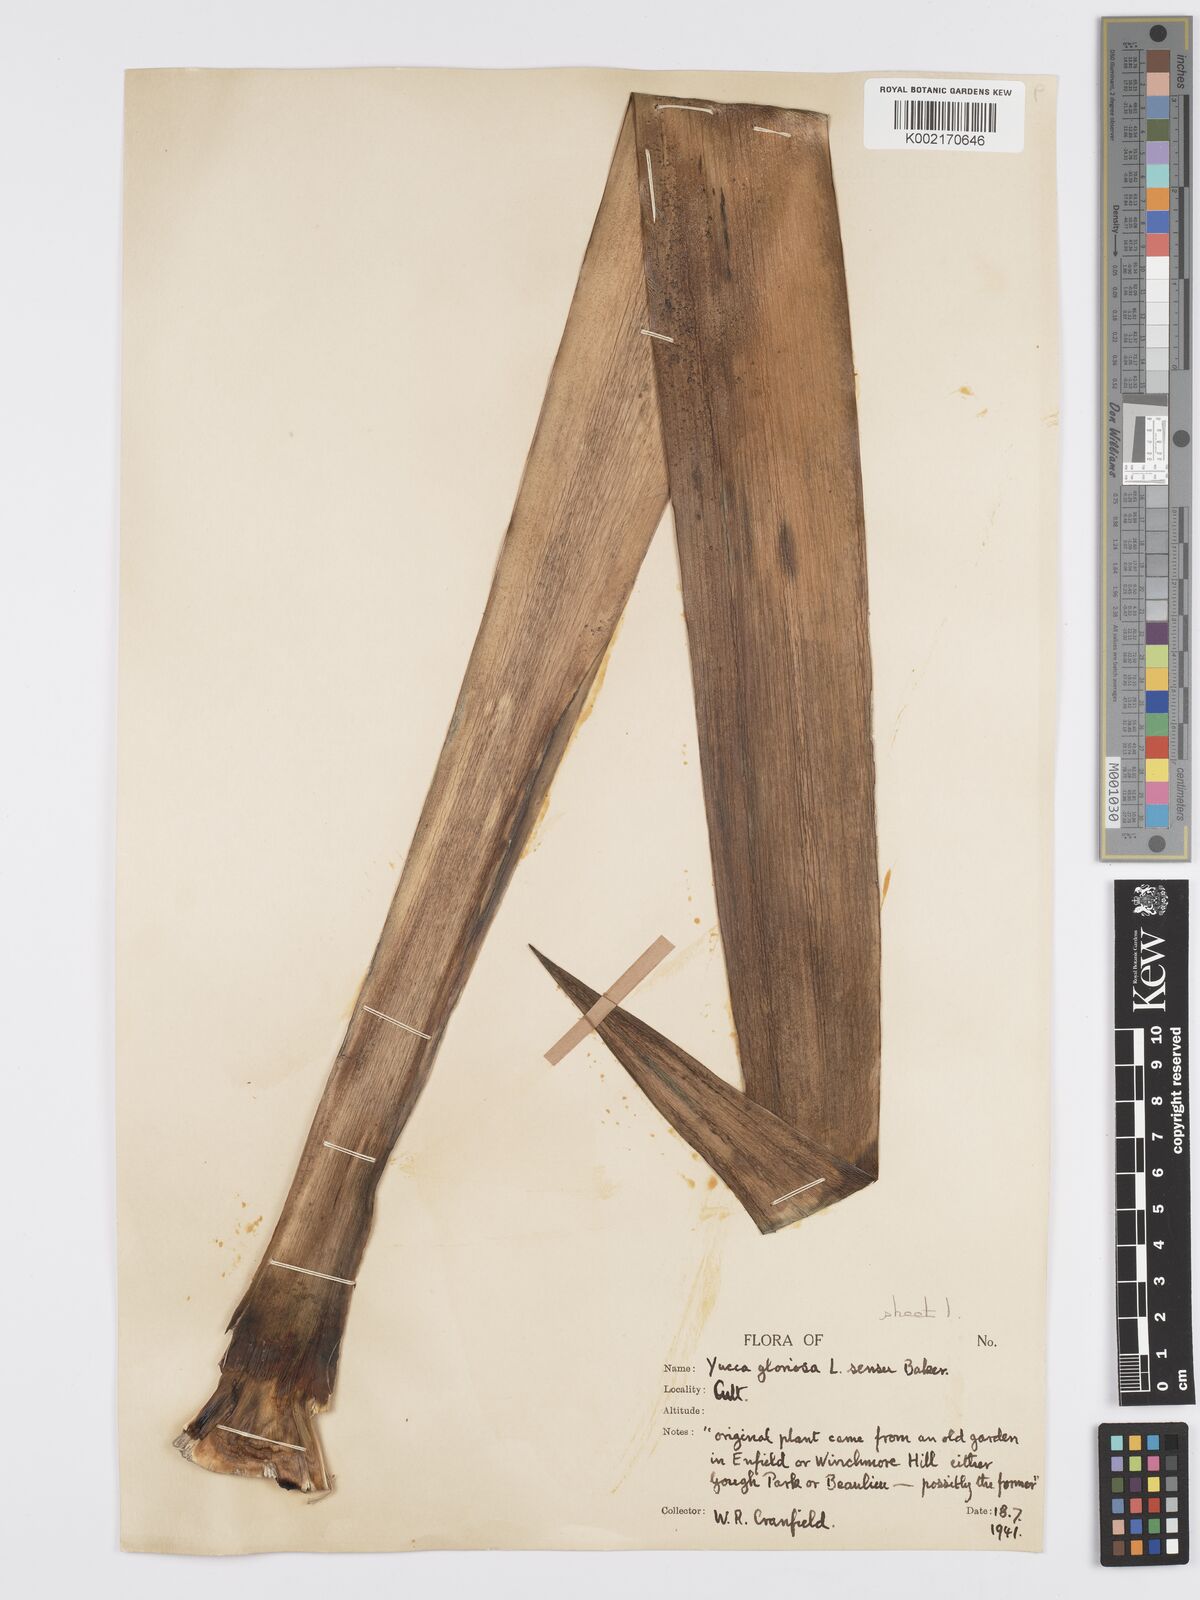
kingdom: Plantae
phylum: Tracheophyta
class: Liliopsida
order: Asparagales
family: Asparagaceae
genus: Yucca
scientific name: Yucca gloriosa
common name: Spanish-dagger
